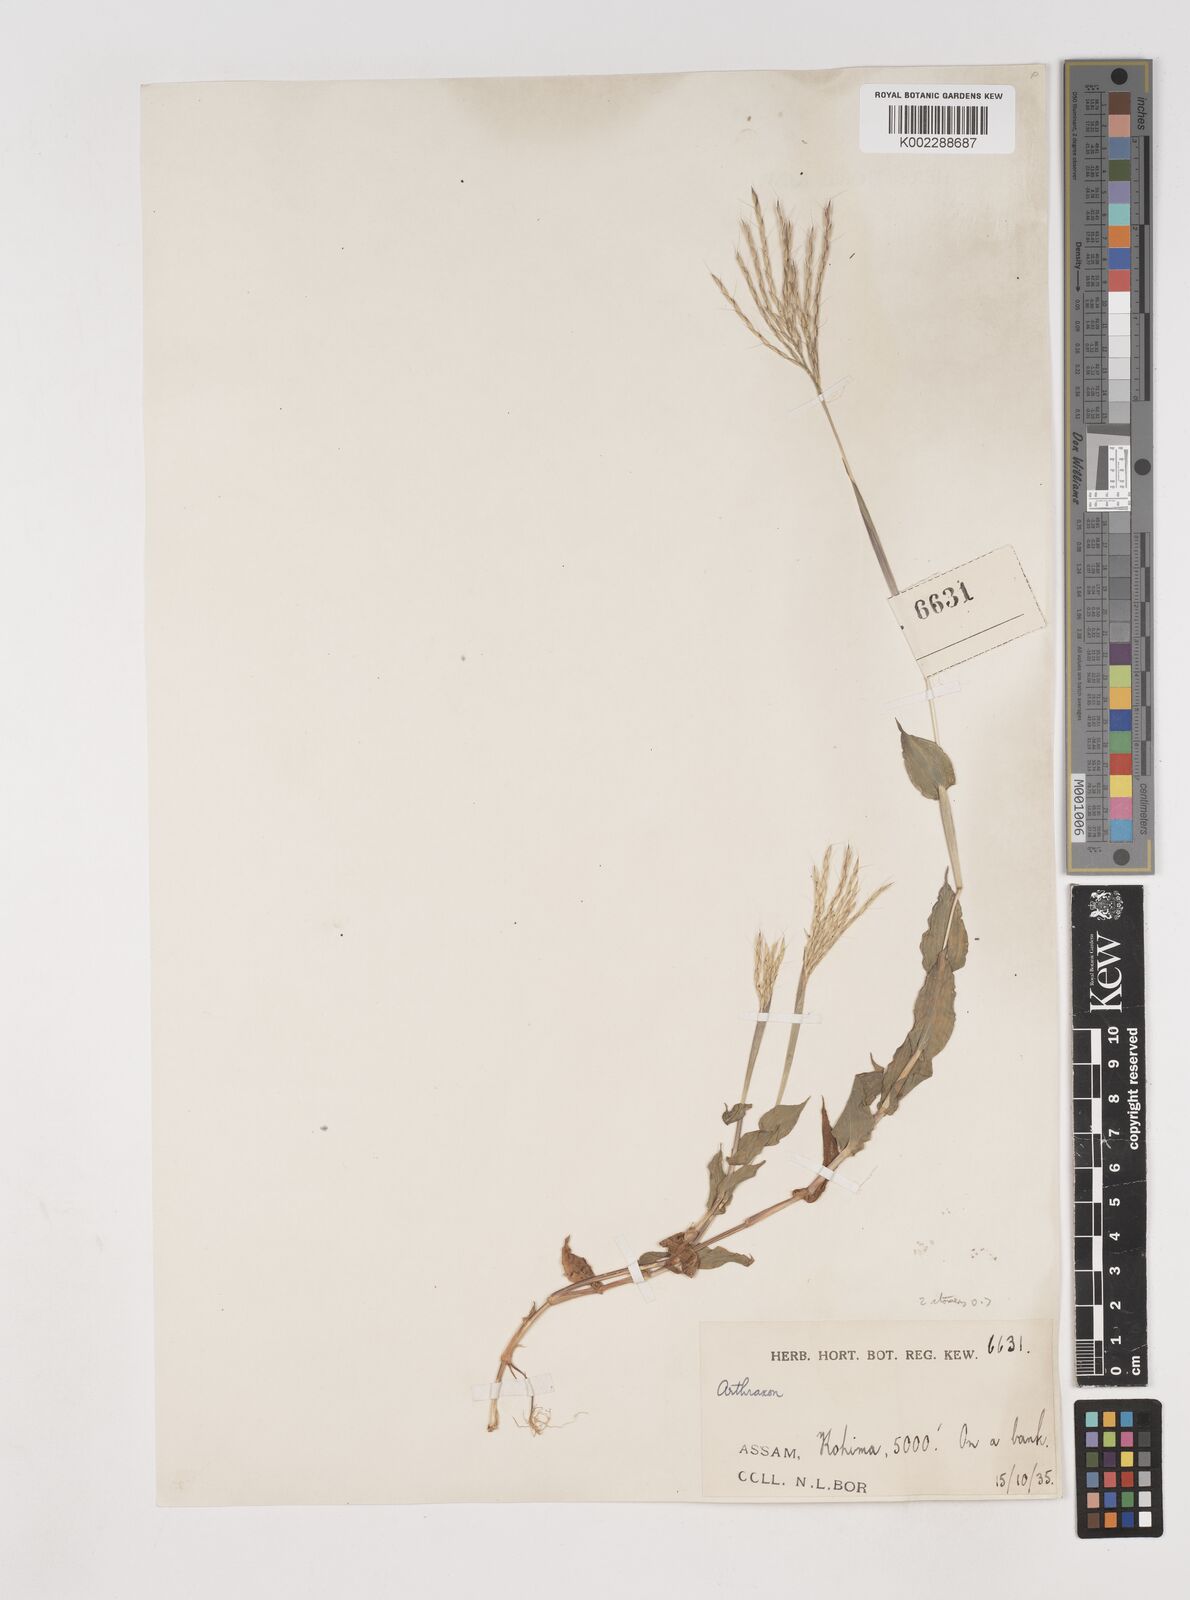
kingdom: Plantae
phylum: Tracheophyta
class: Liliopsida
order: Poales
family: Poaceae
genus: Arthraxon
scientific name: Arthraxon hispidus
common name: Small carpgrass
